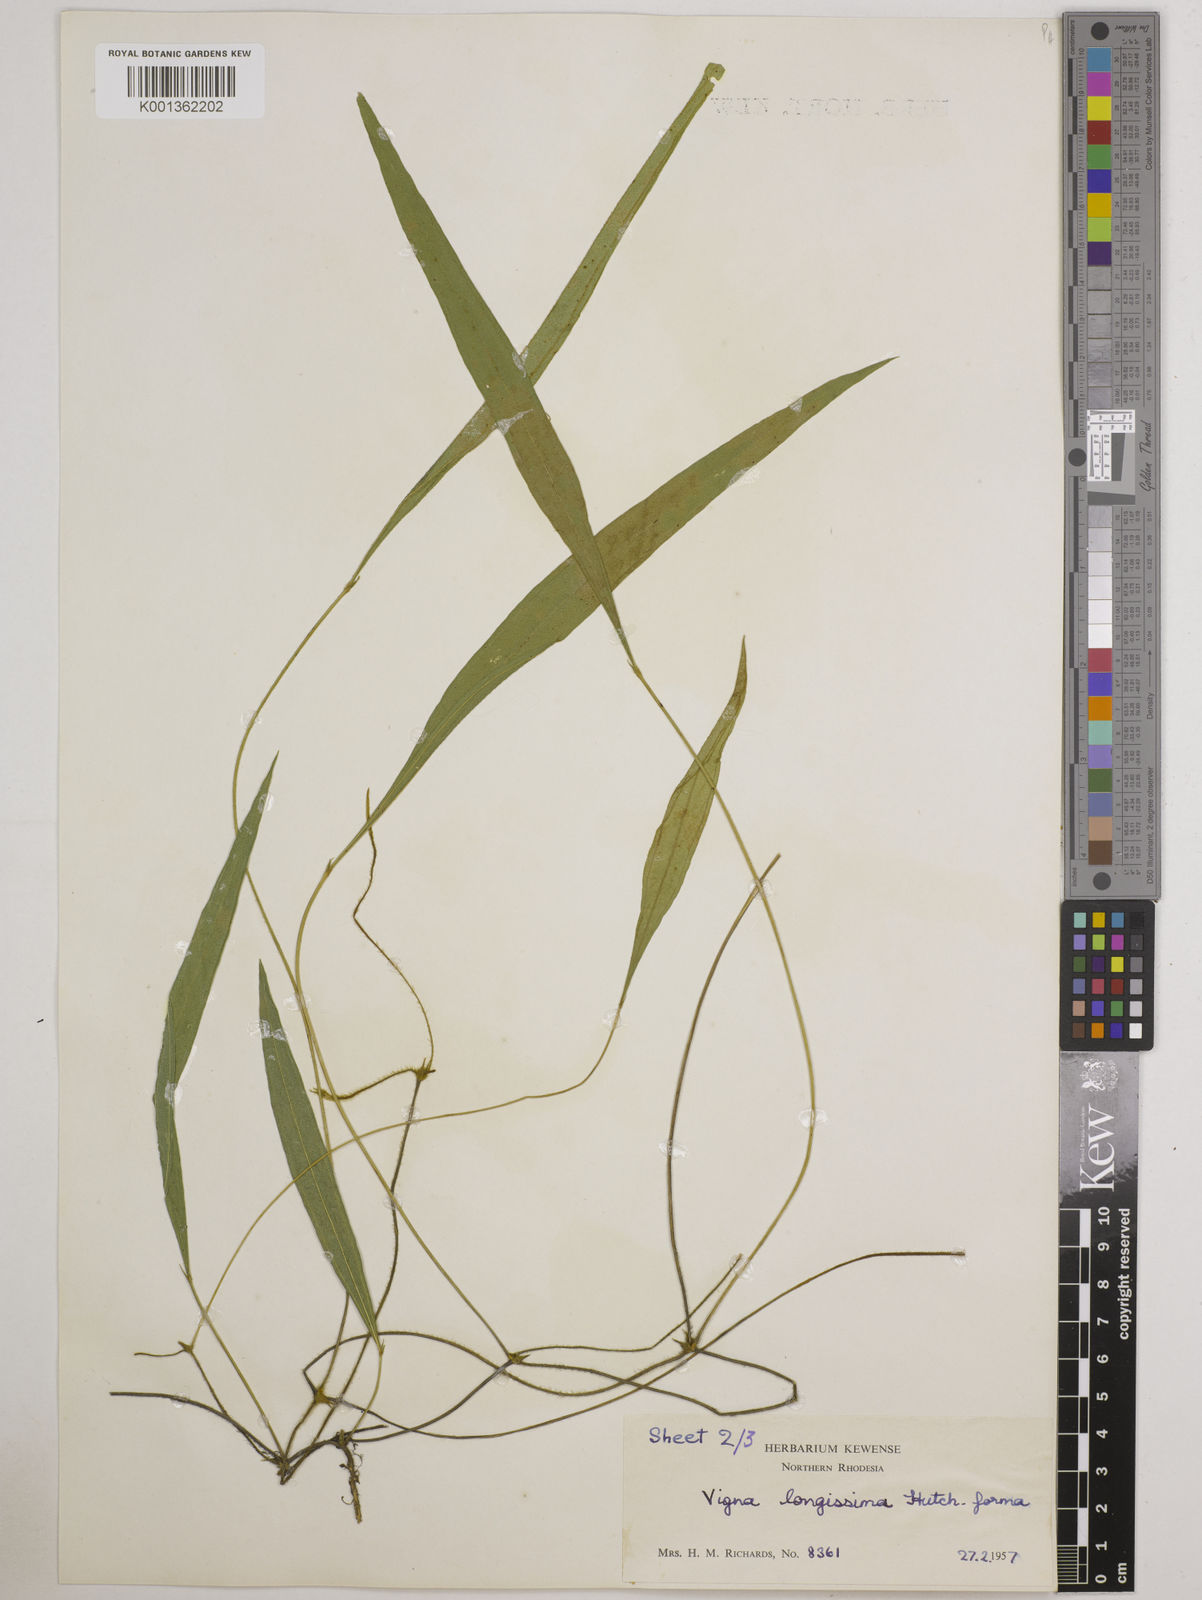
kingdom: Plantae
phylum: Tracheophyta
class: Magnoliopsida
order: Fabales
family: Fabaceae
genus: Vigna
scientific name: Vigna longissima
